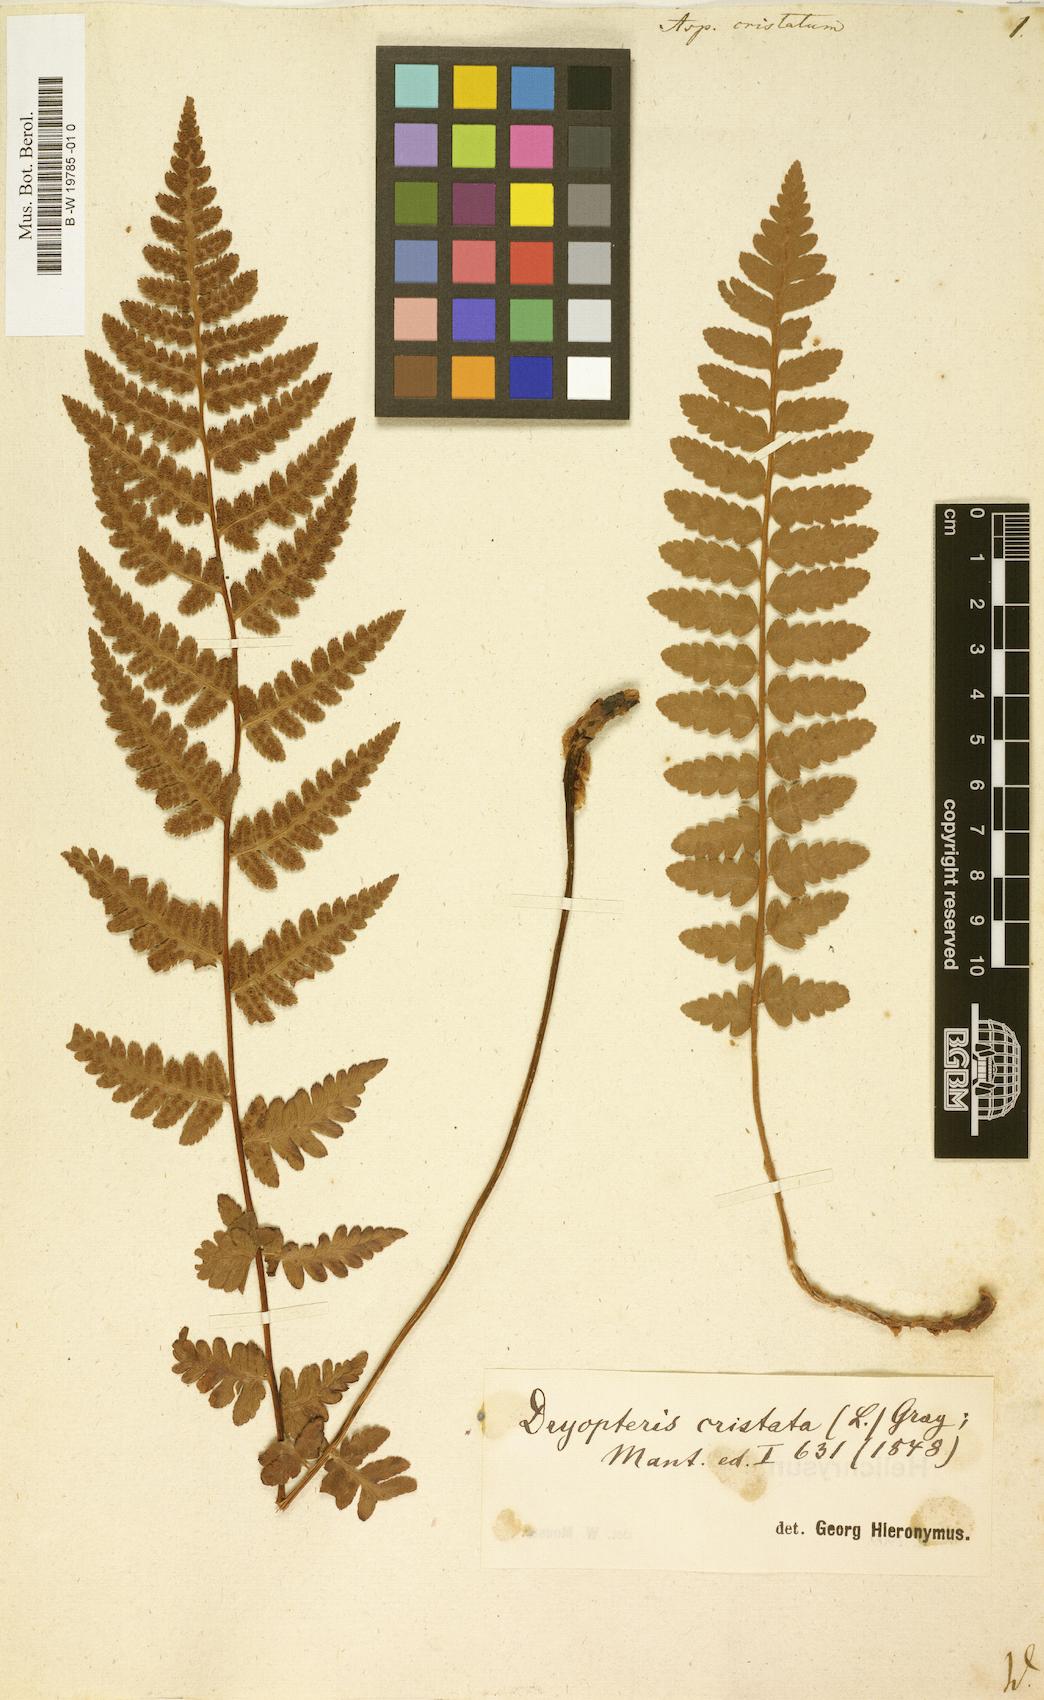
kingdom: Plantae
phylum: Tracheophyta
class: Polypodiopsida
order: Polypodiales
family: Dryopteridaceae
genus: Dryopteris
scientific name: Dryopteris cristata
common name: Crested wood fern
